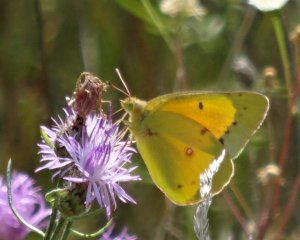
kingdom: Animalia
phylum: Arthropoda
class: Insecta
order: Lepidoptera
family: Pieridae
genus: Colias
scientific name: Colias eurytheme
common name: Orange Sulphur
